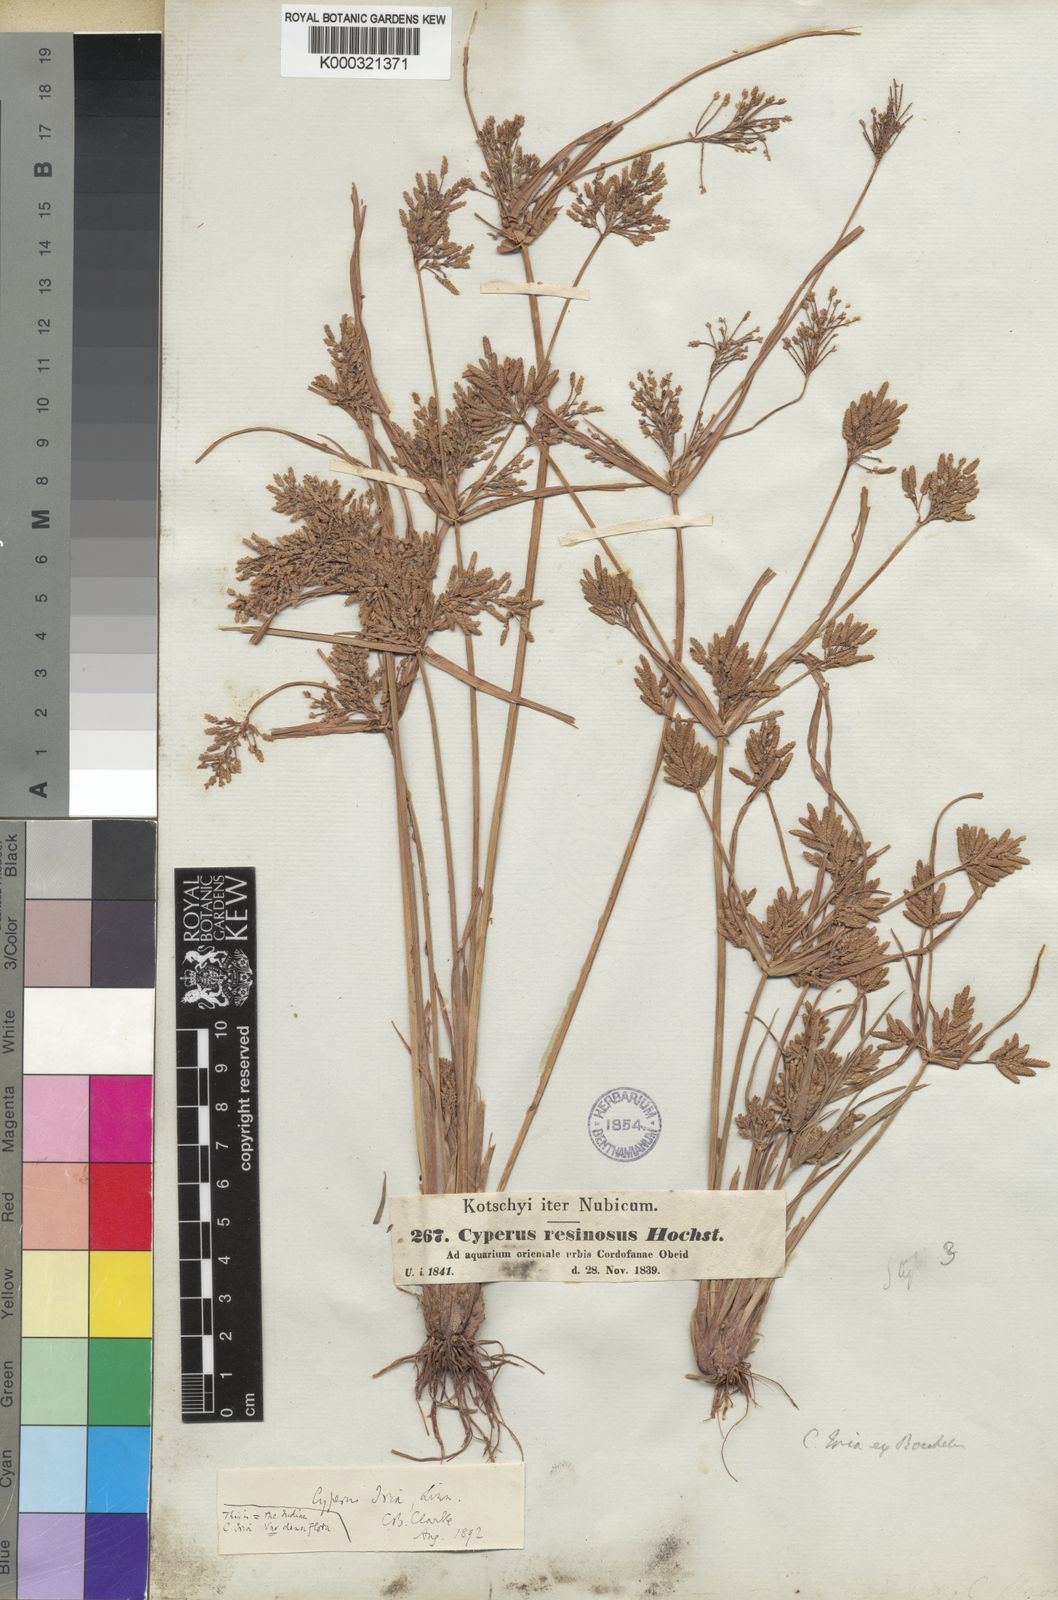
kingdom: Plantae
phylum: Tracheophyta
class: Liliopsida
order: Poales
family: Cyperaceae
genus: Cyperus
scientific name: Cyperus iria
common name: Ricefield flatsedge
